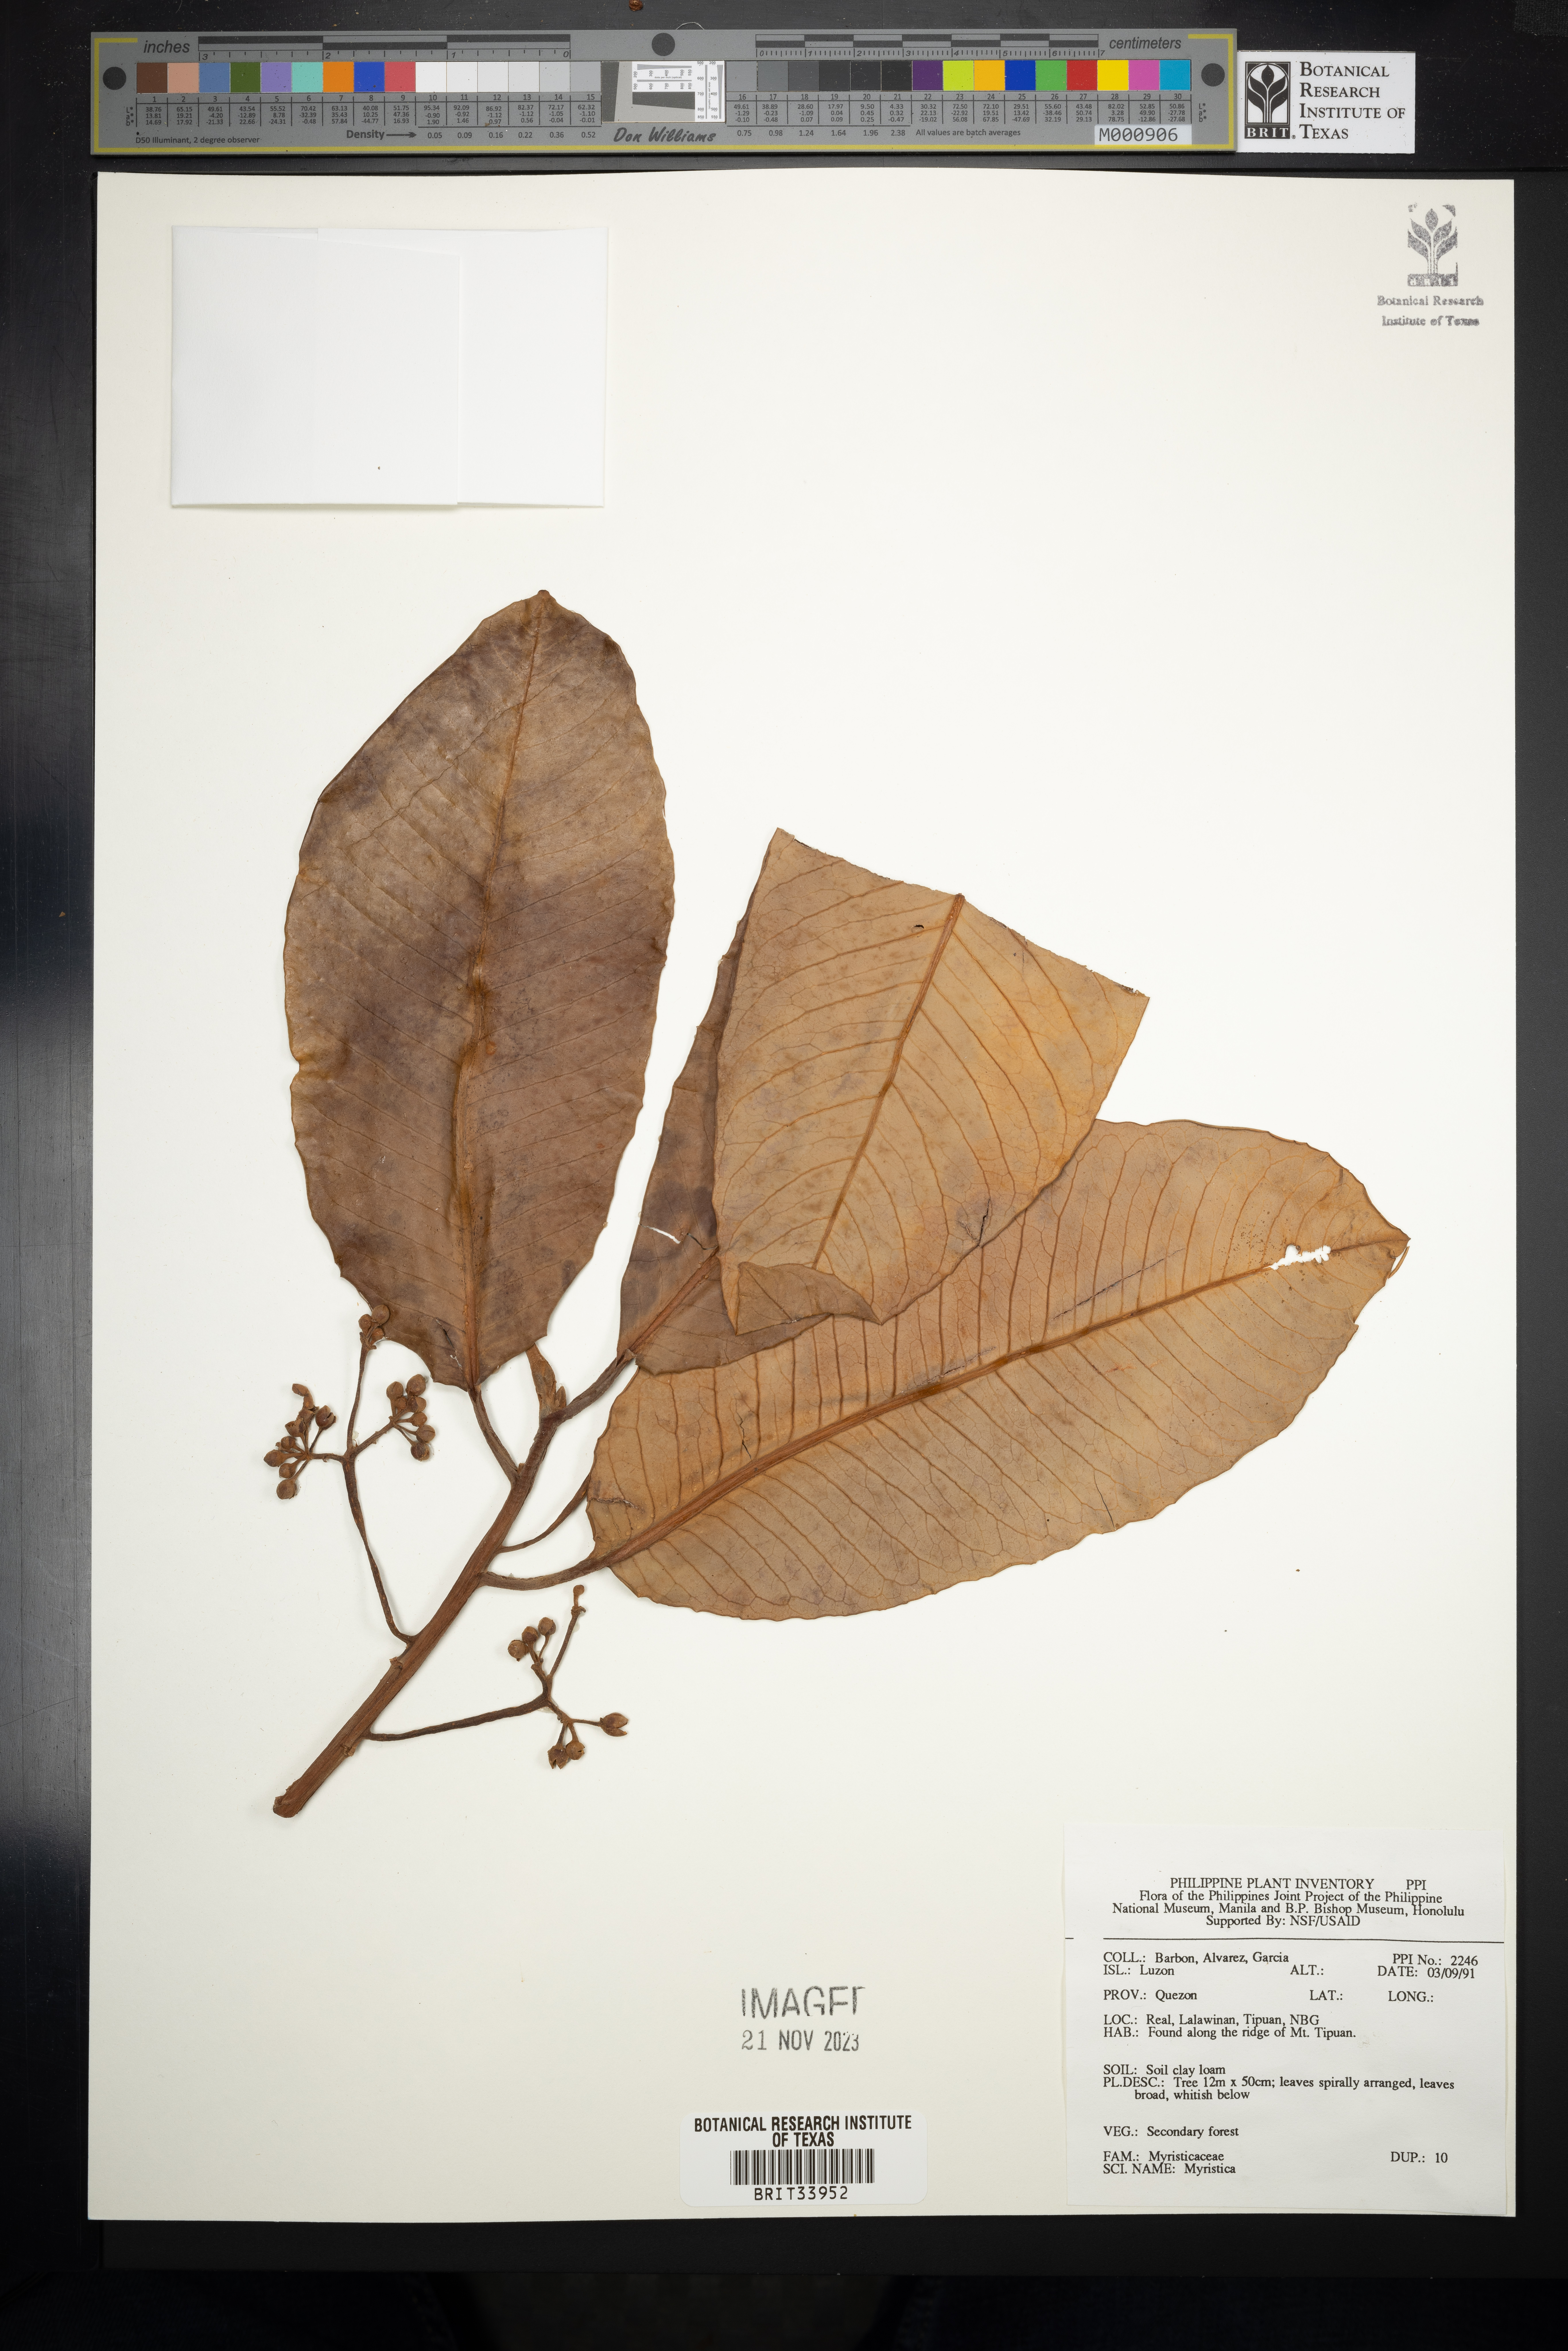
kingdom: Plantae
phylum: Tracheophyta
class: Magnoliopsida
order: Magnoliales
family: Myristicaceae
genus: Myristica
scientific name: Myristica
